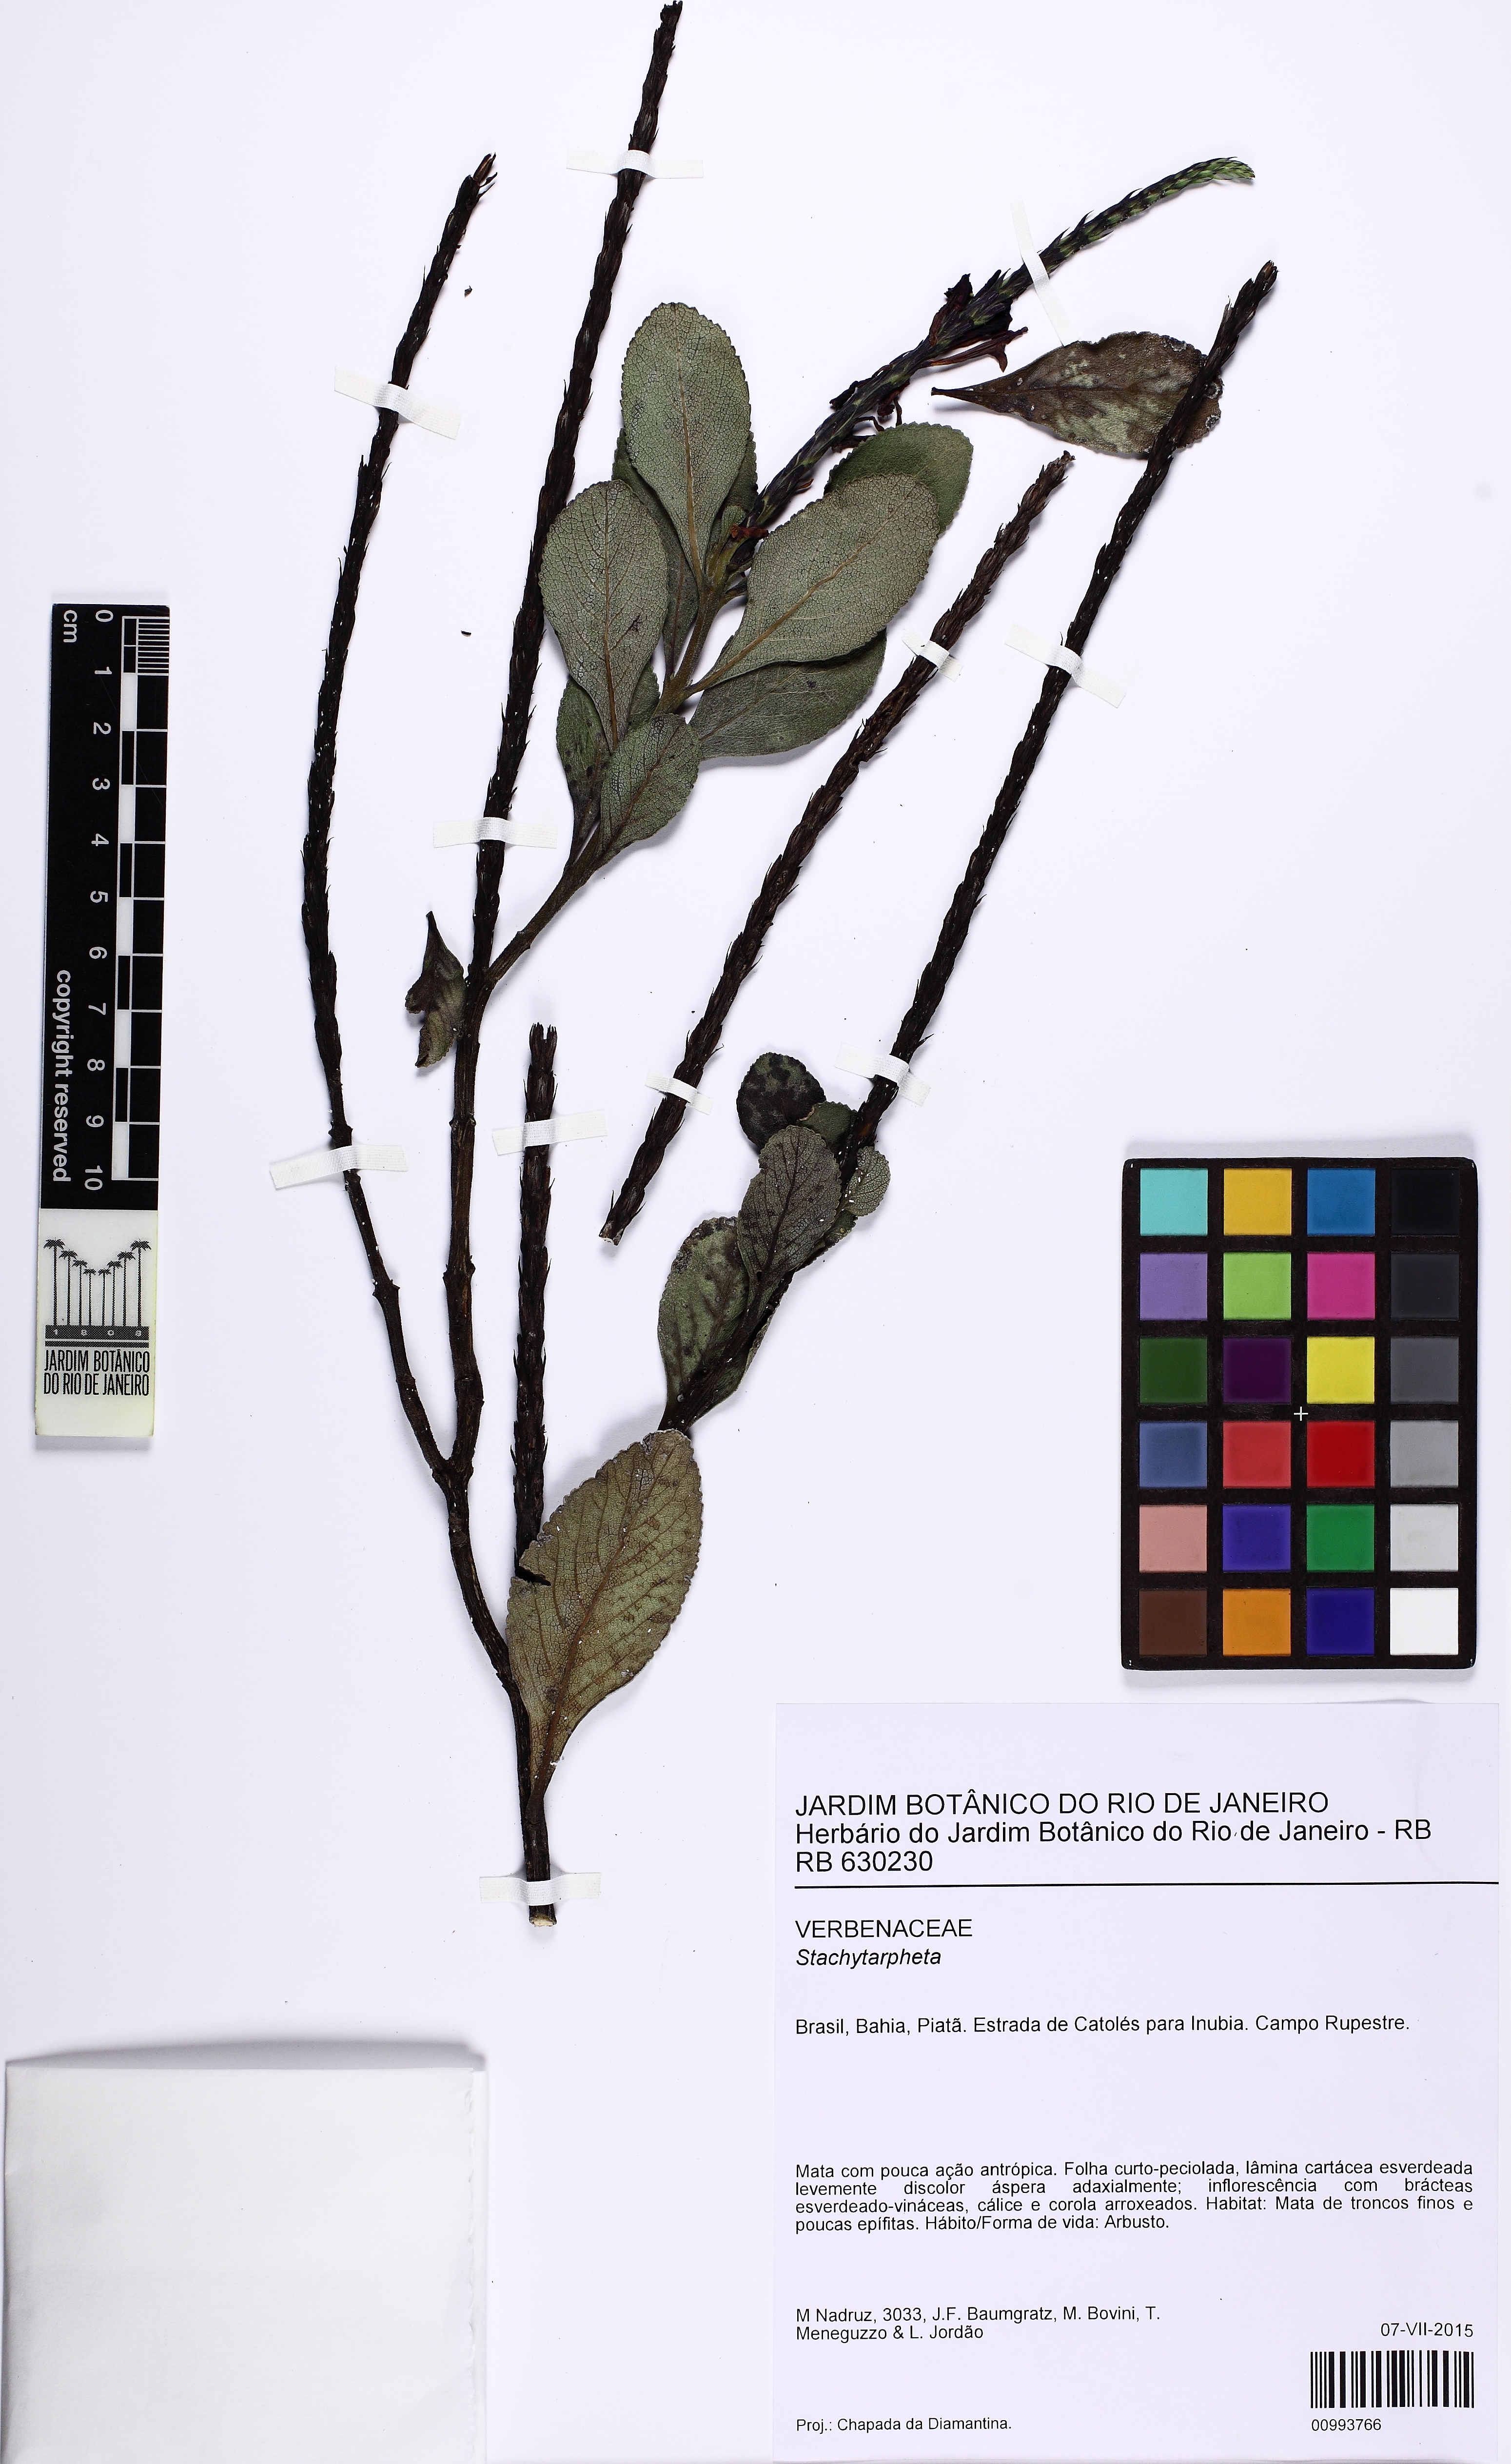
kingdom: Plantae
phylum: Tracheophyta
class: Magnoliopsida
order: Lamiales
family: Verbenaceae
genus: Stachytarpheta
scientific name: Stachytarpheta crassifolia
